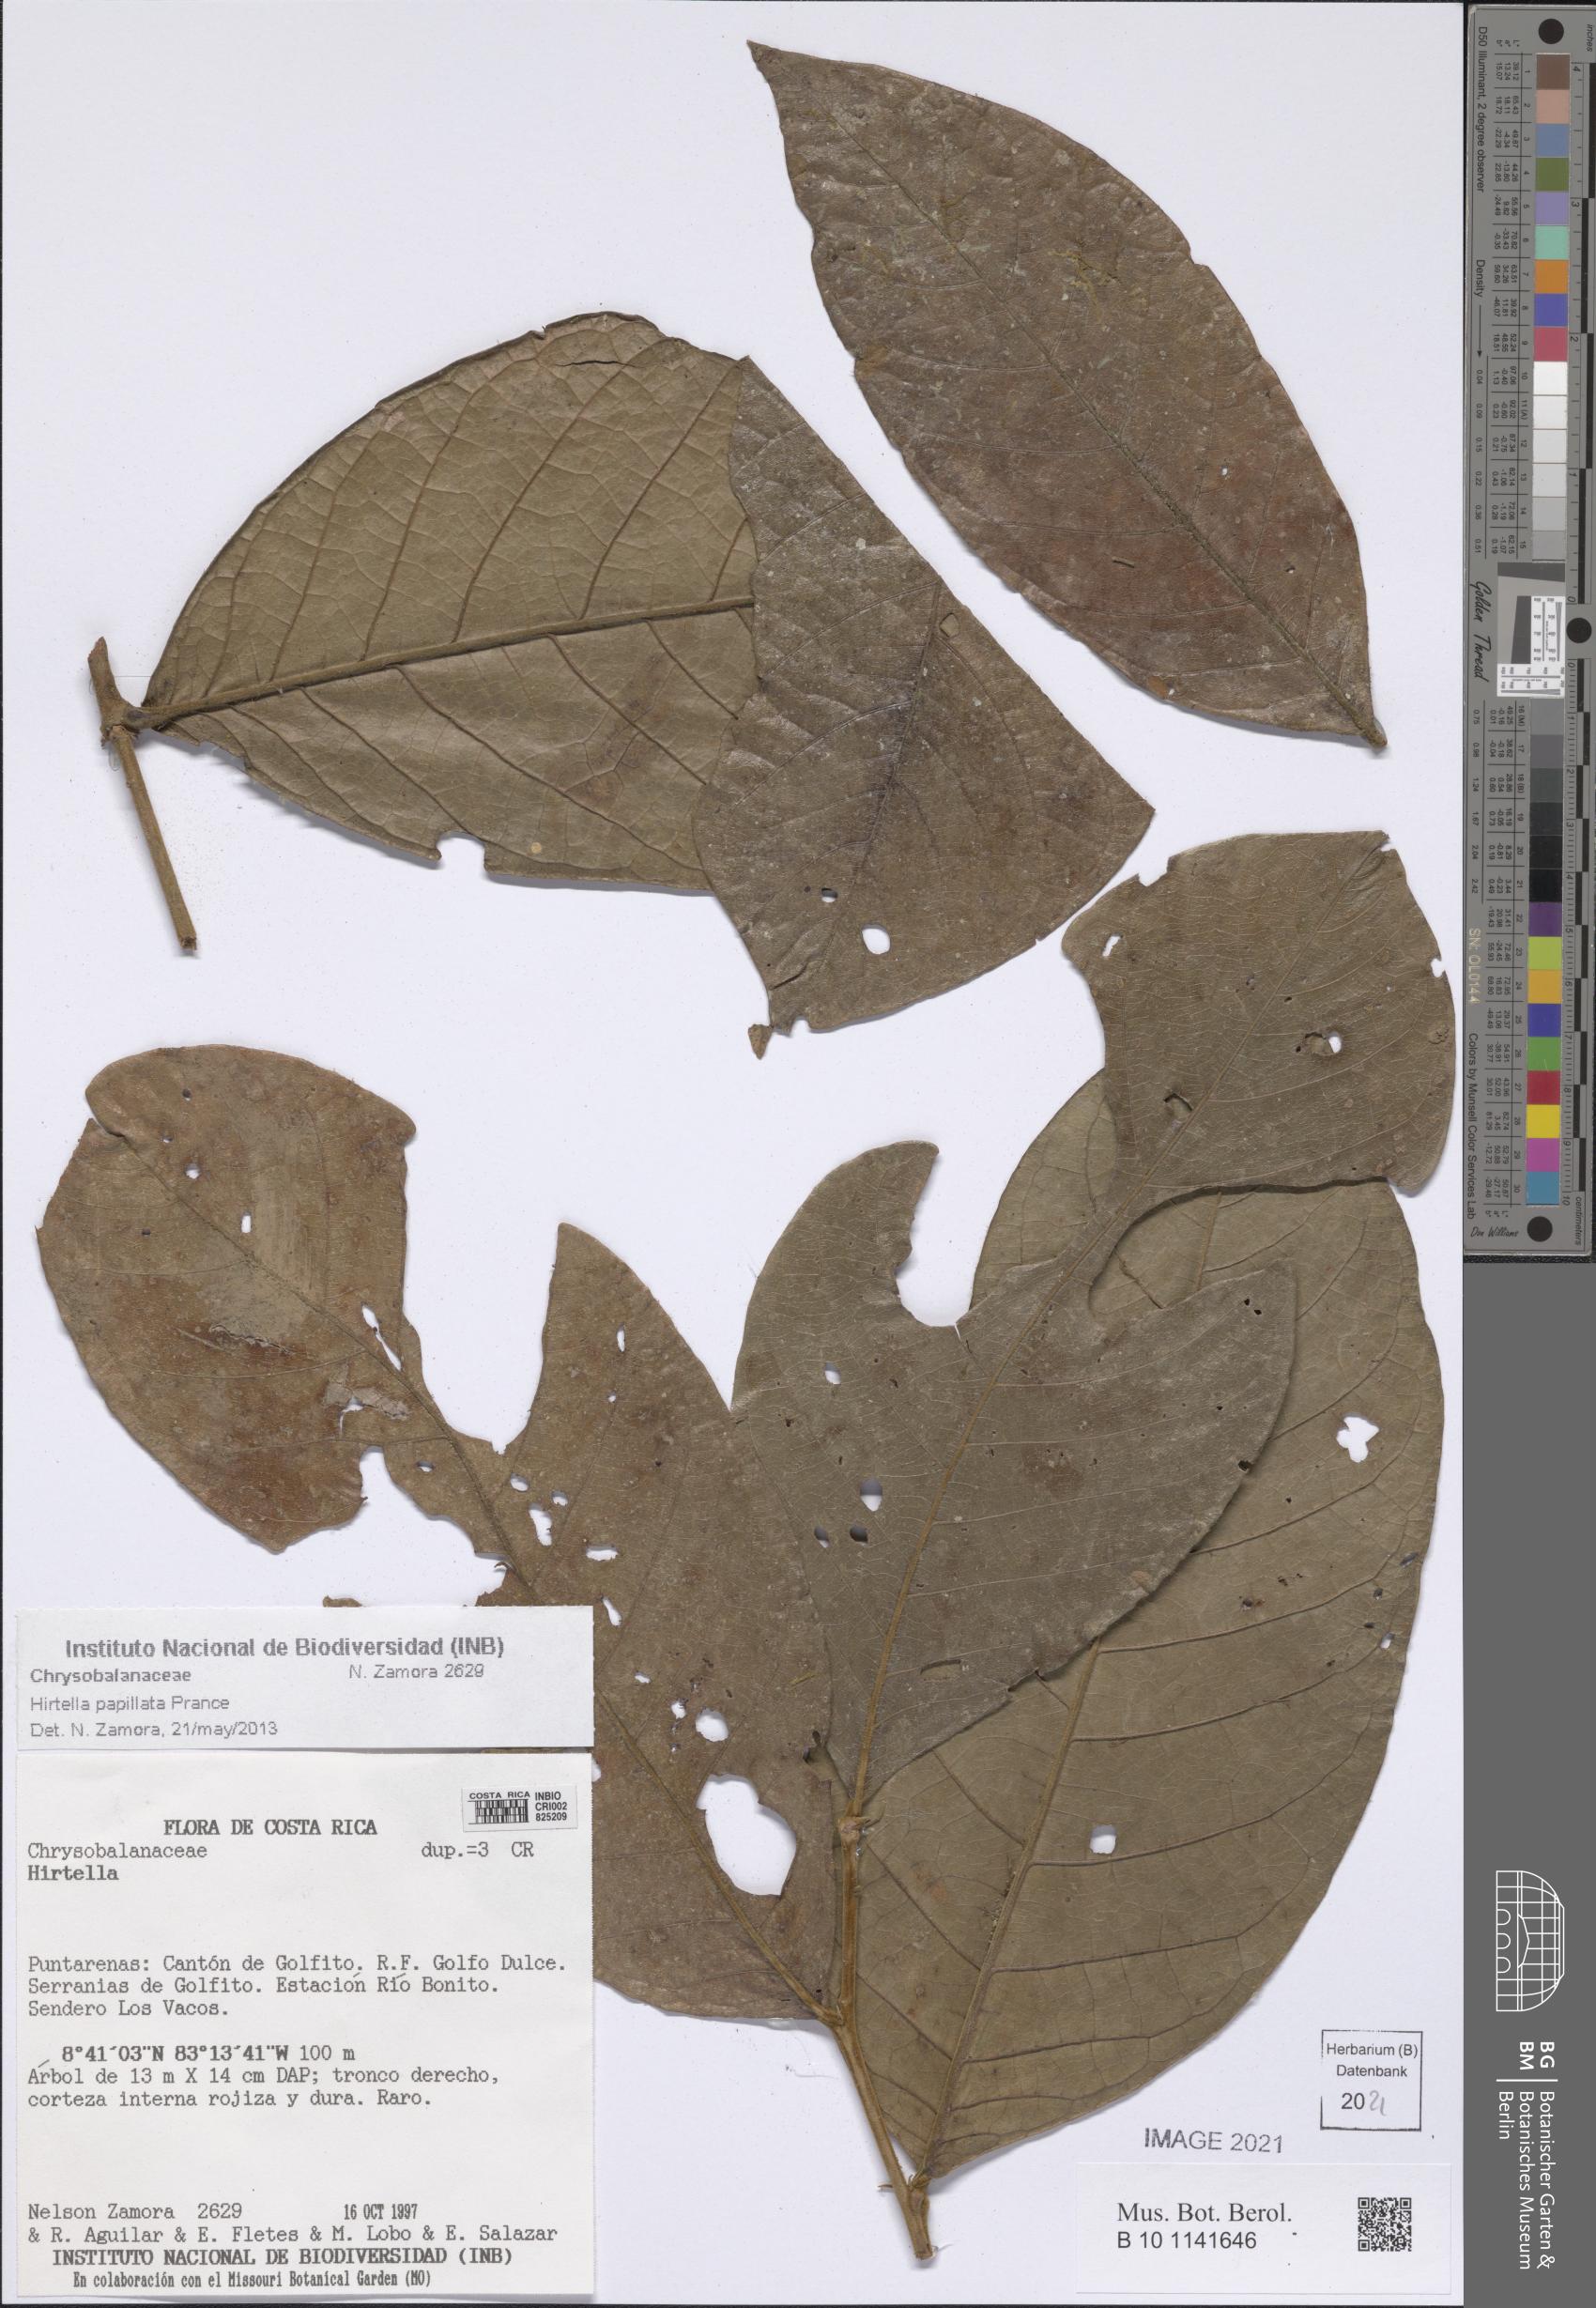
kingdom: Plantae
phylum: Tracheophyta
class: Magnoliopsida
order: Malpighiales
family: Chrysobalanaceae
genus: Hirtella
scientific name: Hirtella papillata
